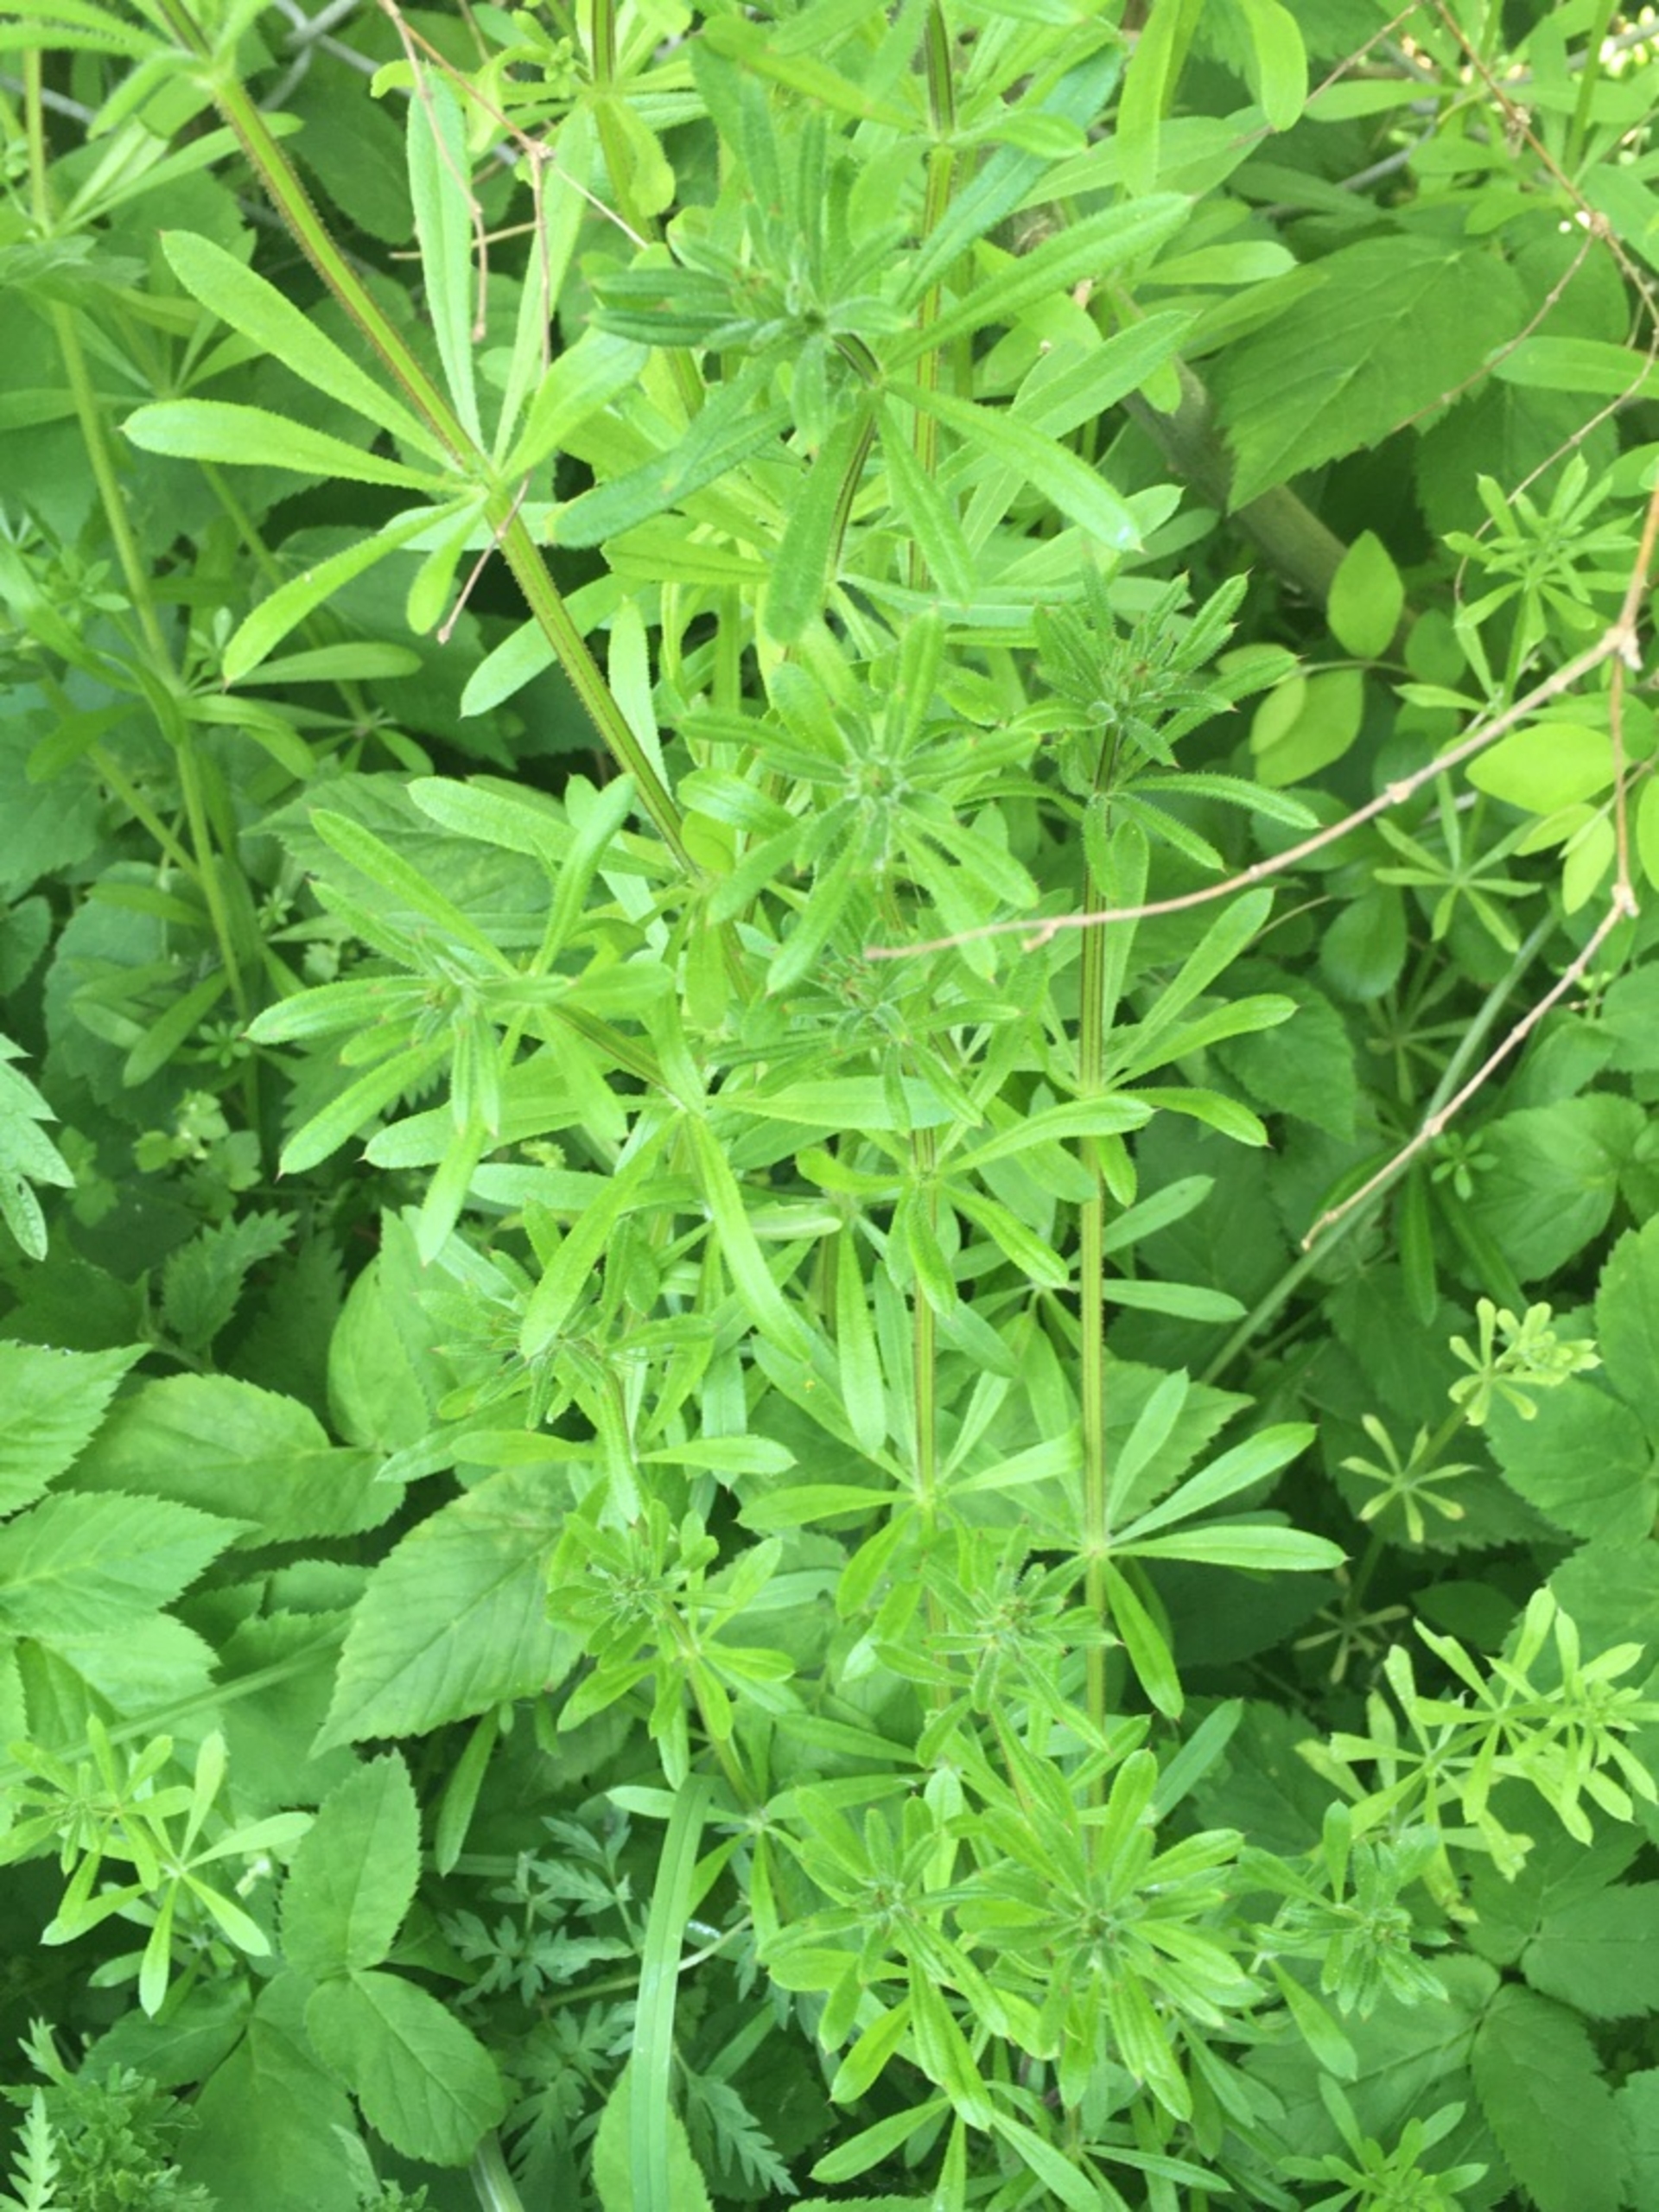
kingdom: Plantae
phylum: Tracheophyta
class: Magnoliopsida
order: Gentianales
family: Rubiaceae
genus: Galium
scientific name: Galium aparine
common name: Burre-snerre
